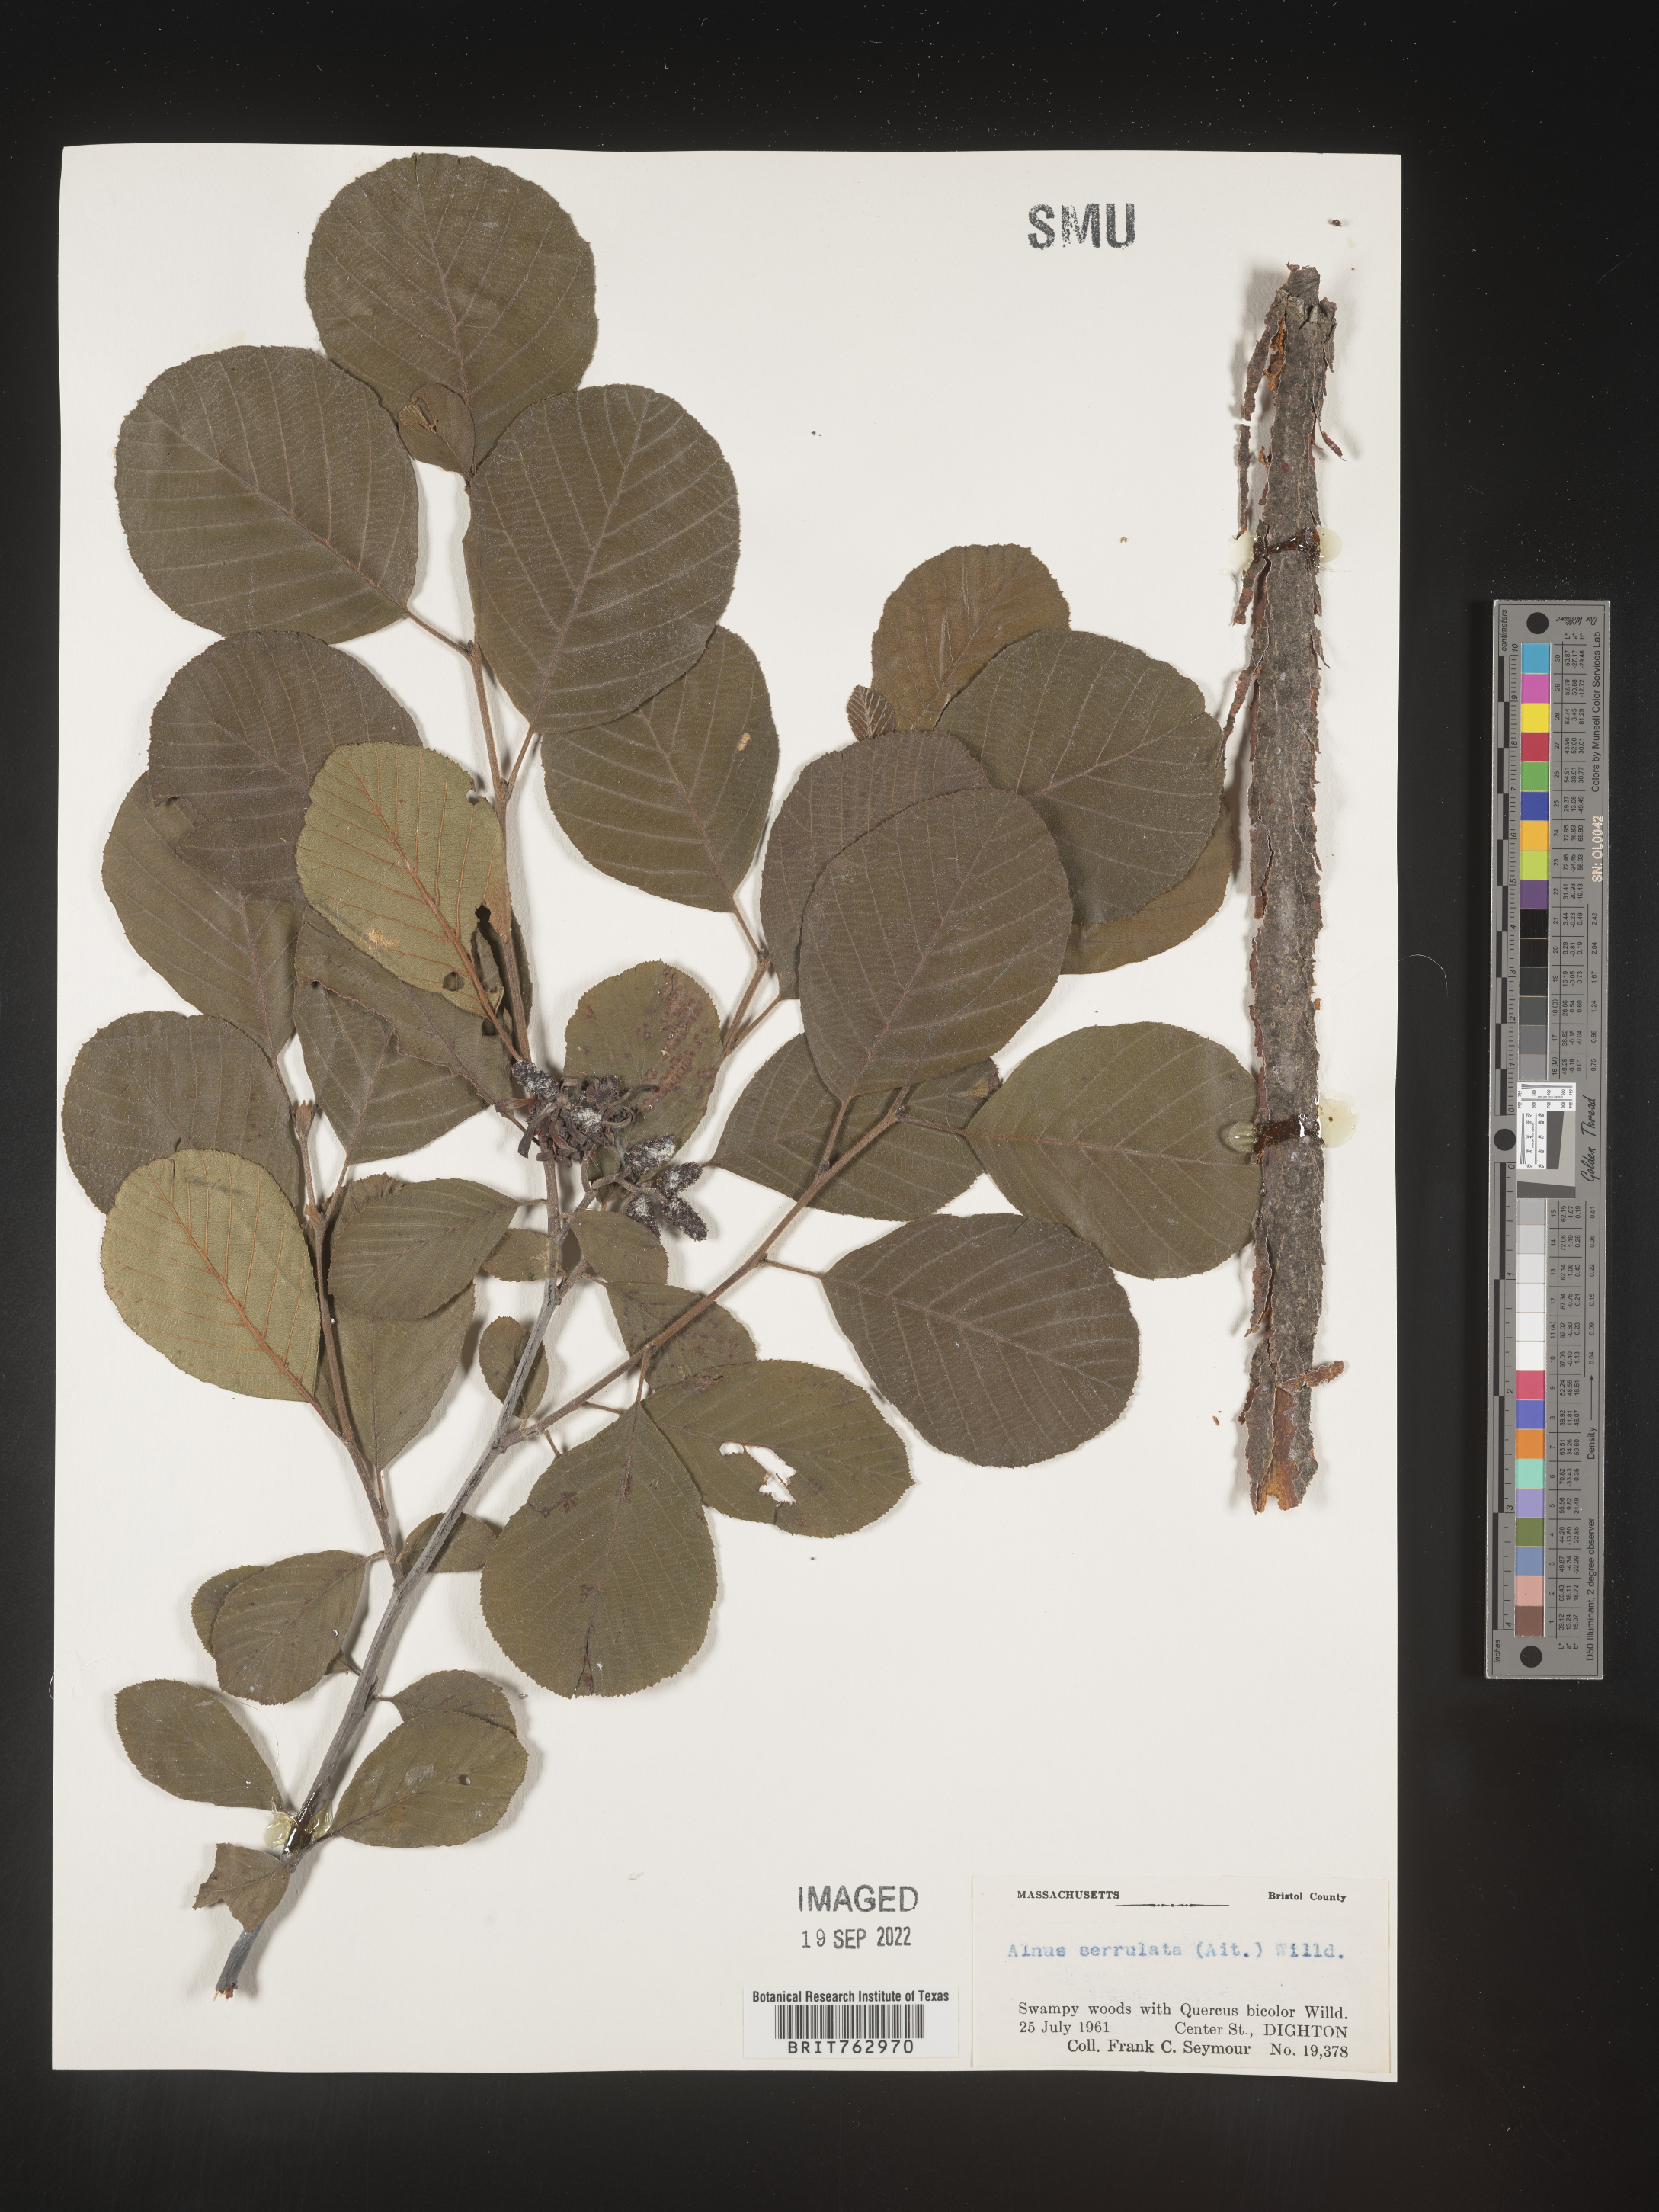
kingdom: Plantae
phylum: Tracheophyta
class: Magnoliopsida
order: Fagales
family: Betulaceae
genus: Alnus
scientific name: Alnus serrulata
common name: Hazel alder
